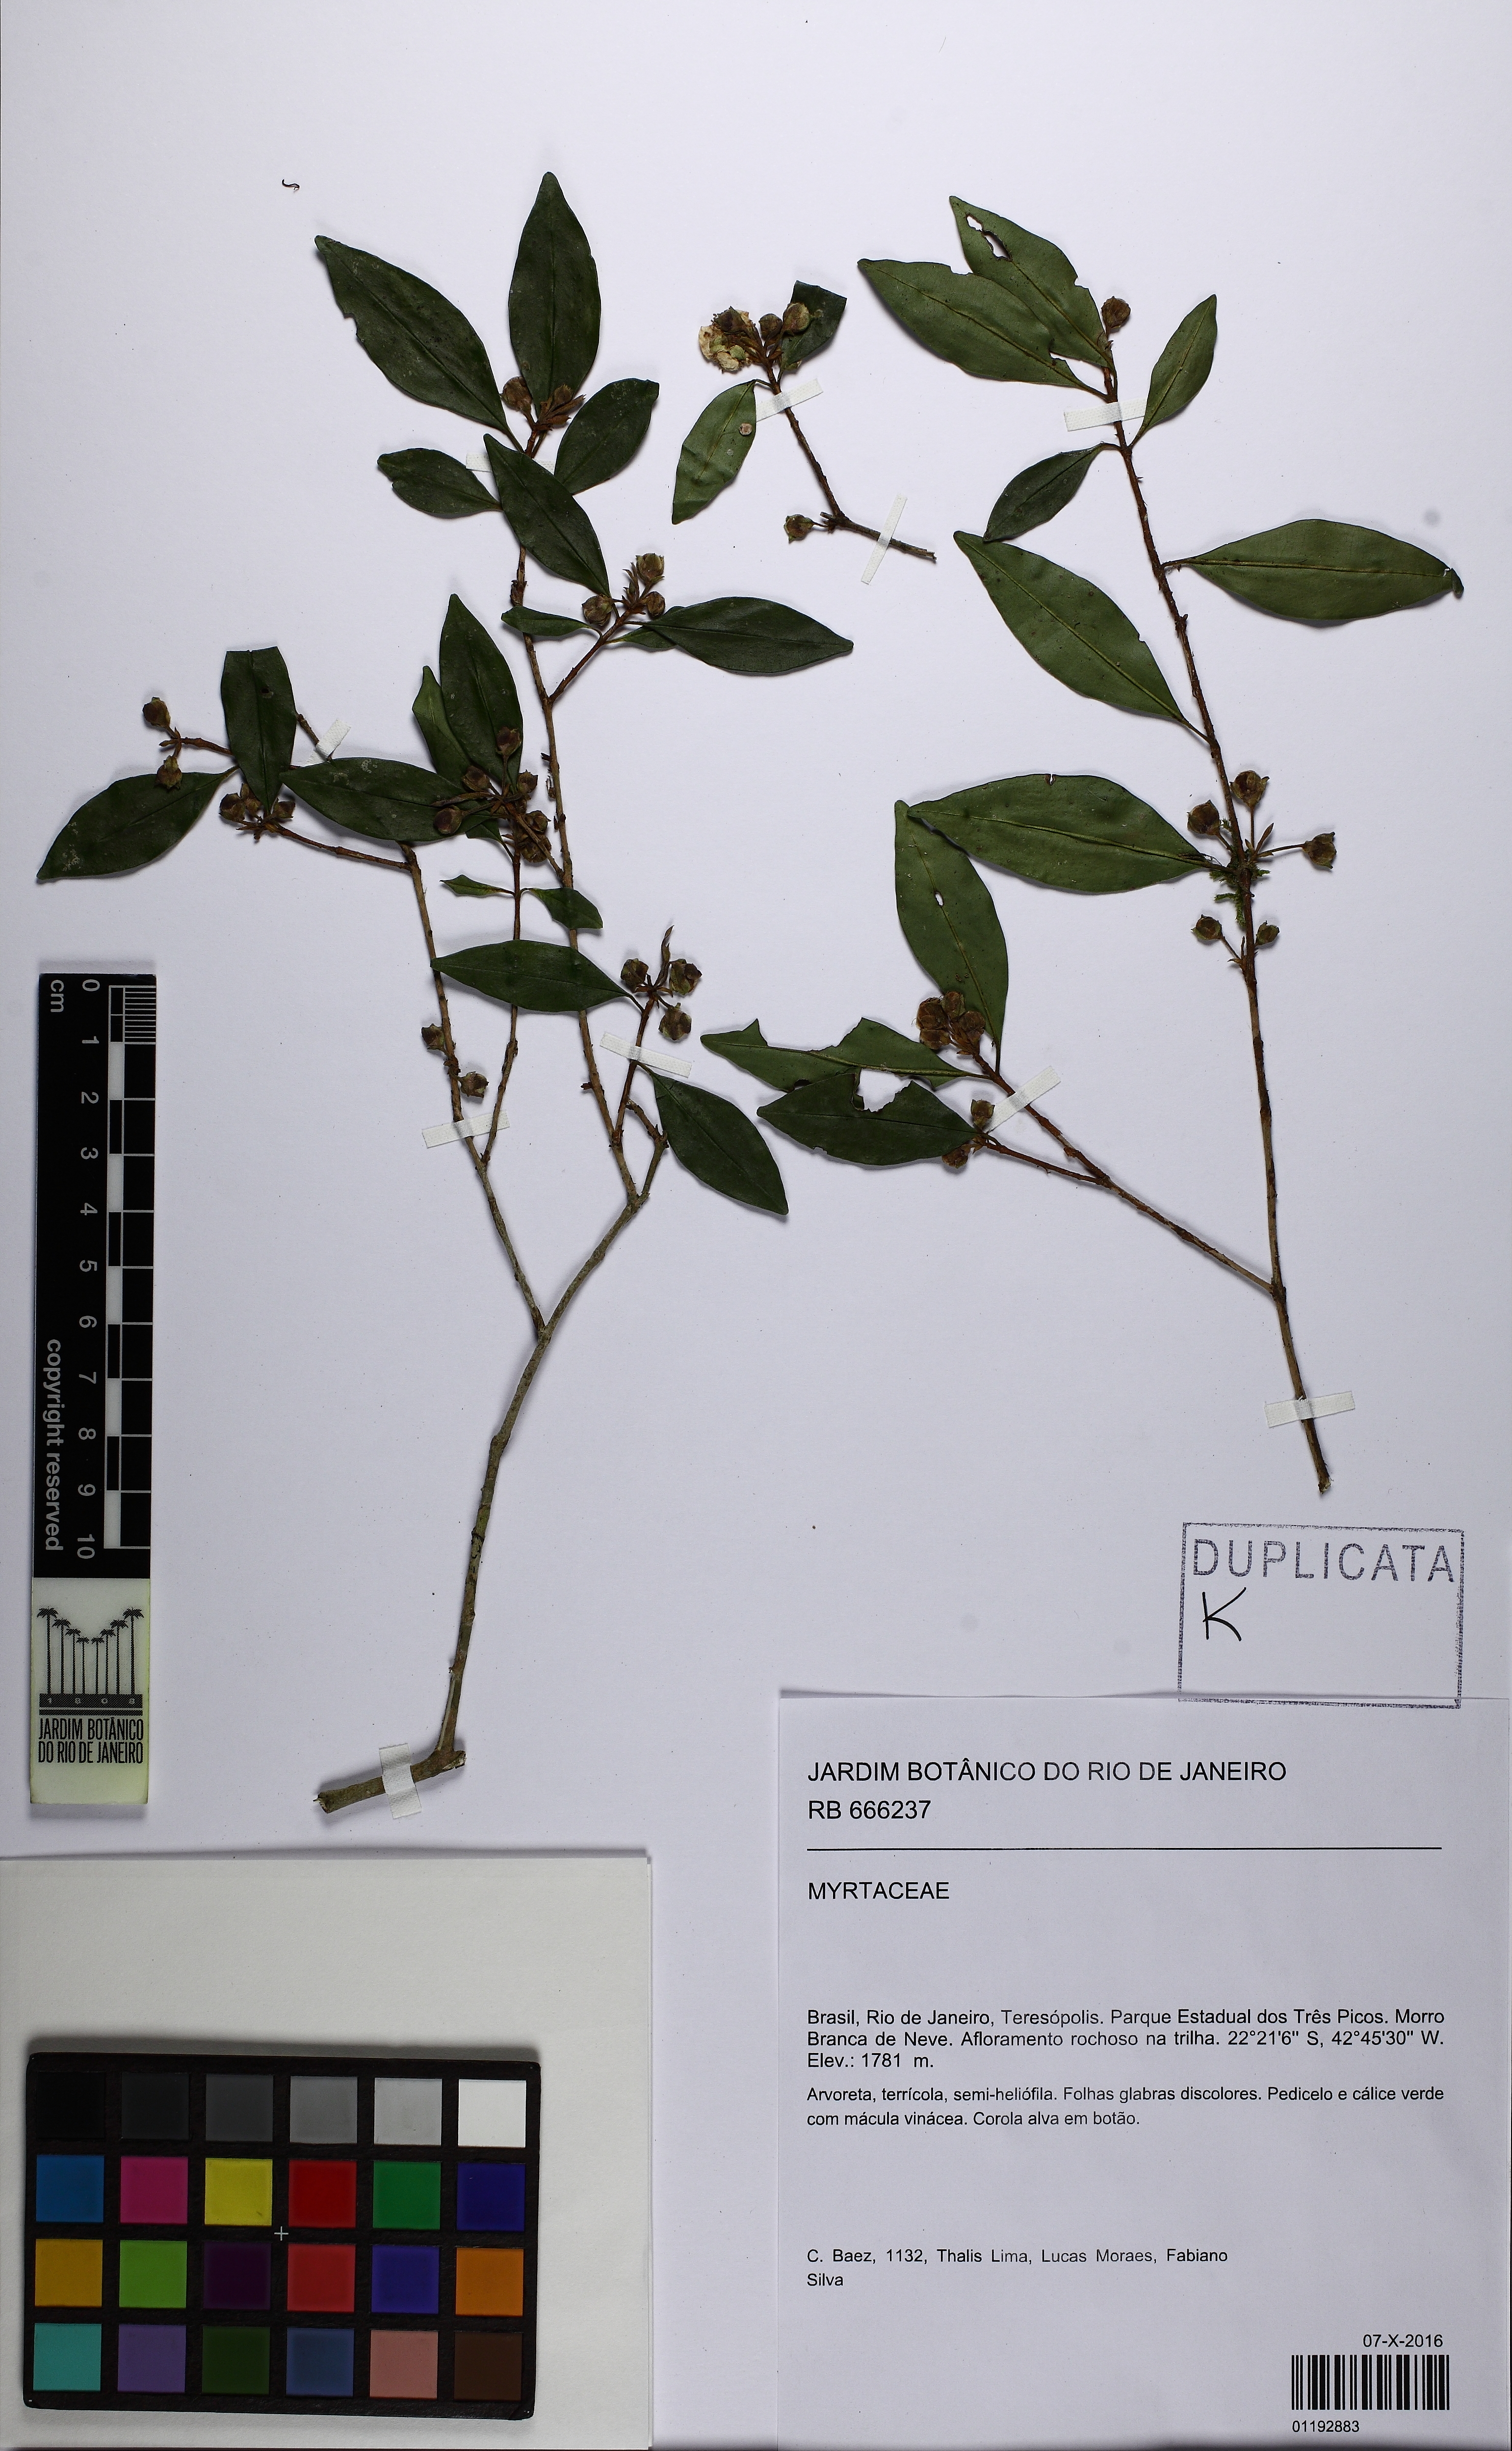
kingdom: Plantae
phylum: Tracheophyta
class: Magnoliopsida
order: Myrtales
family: Myrtaceae
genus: Eugenia
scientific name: Eugenia kleinii
